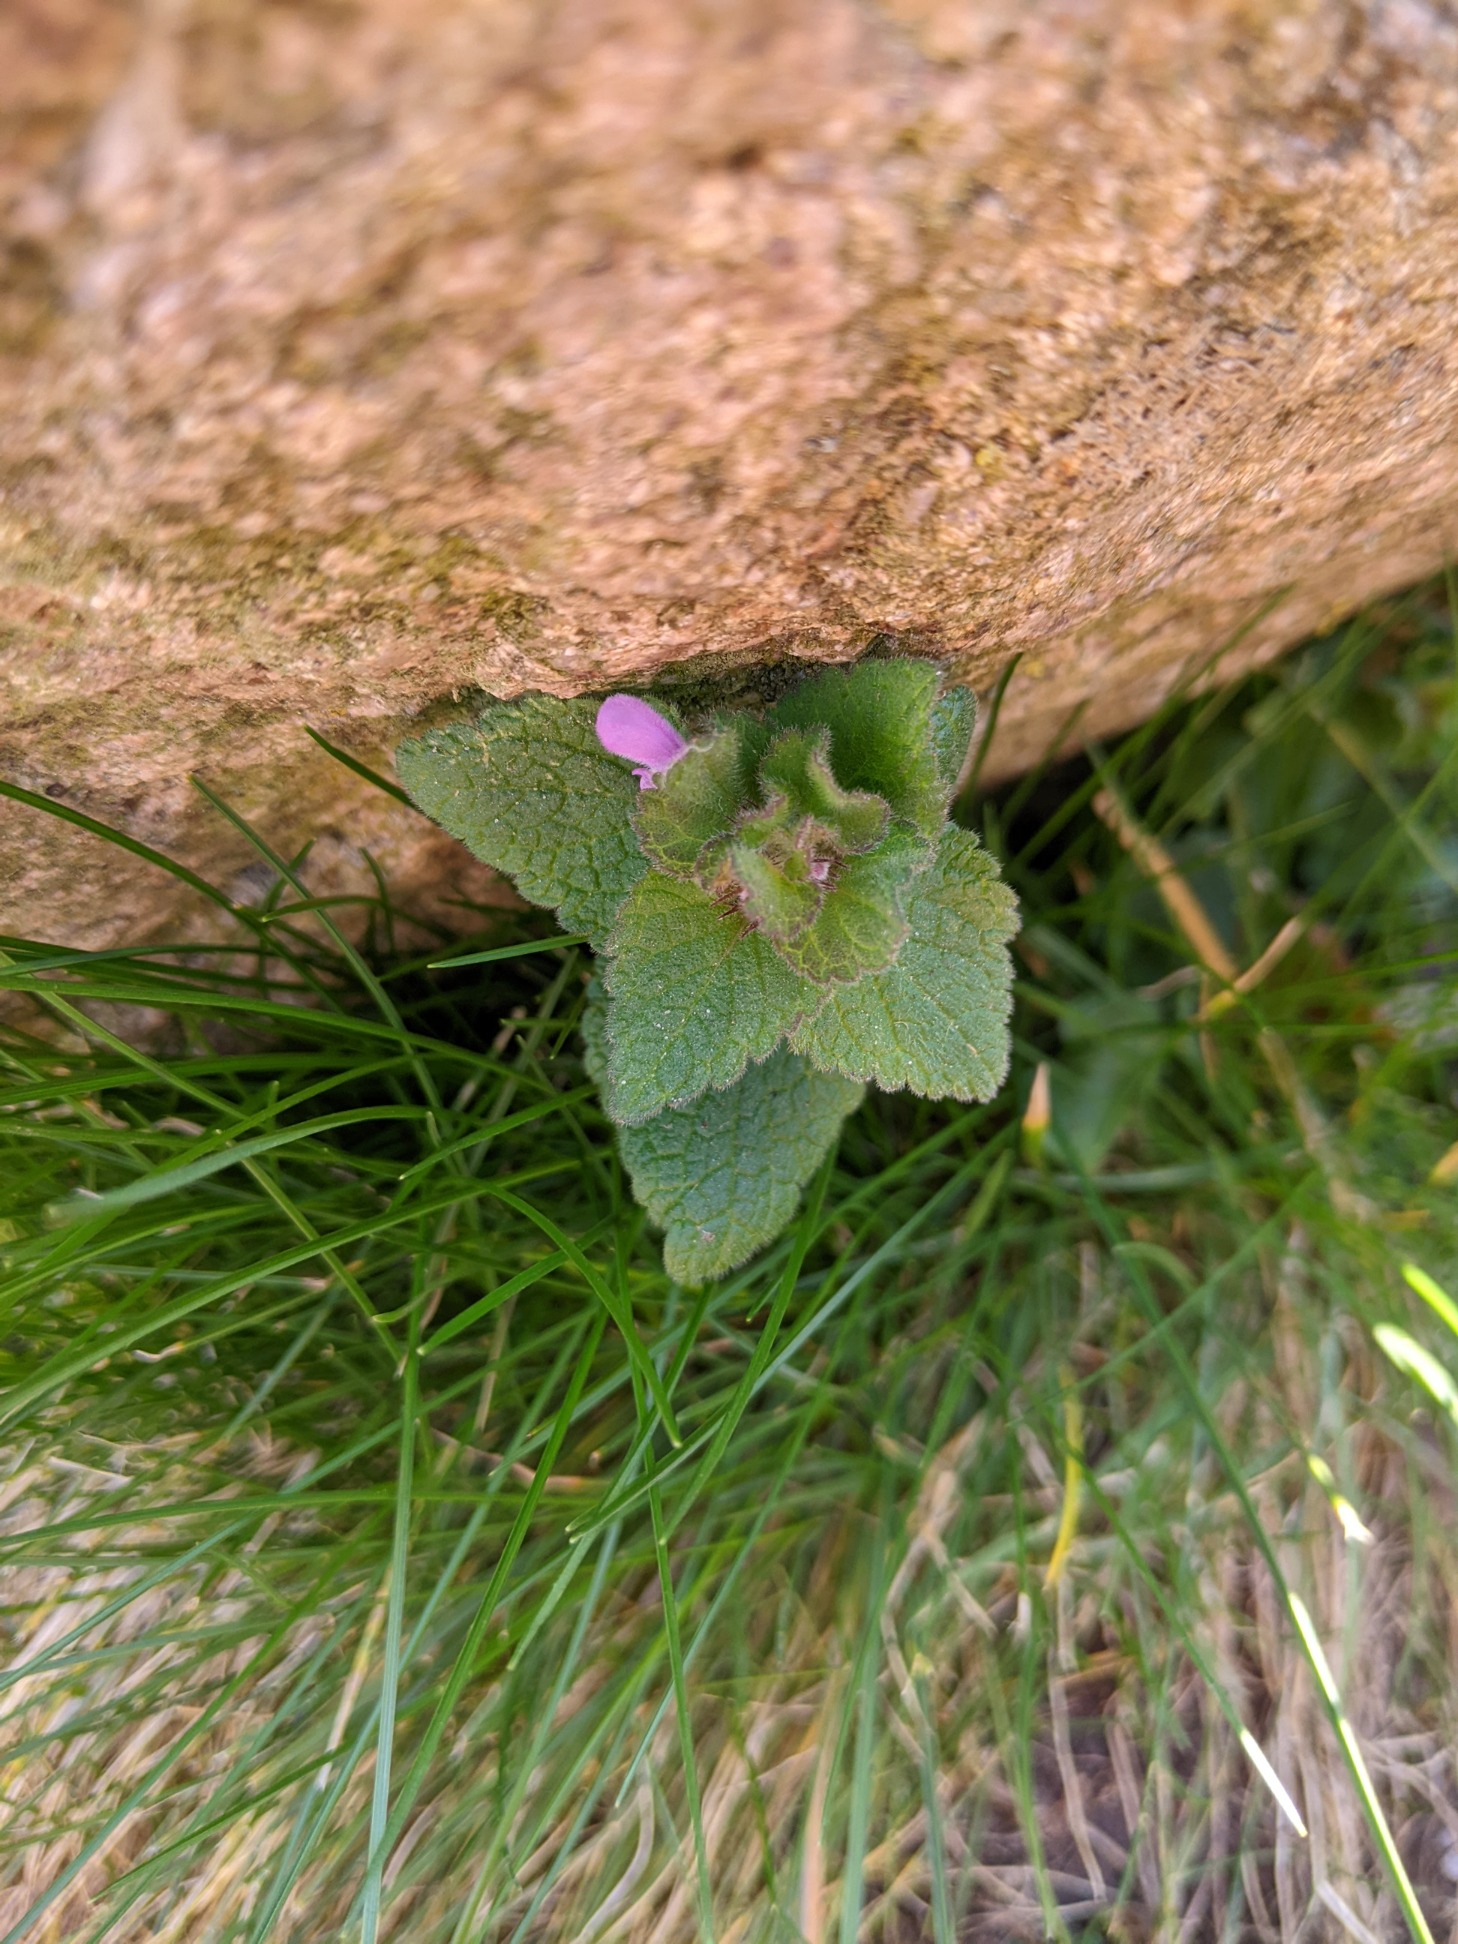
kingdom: Plantae
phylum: Tracheophyta
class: Magnoliopsida
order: Lamiales
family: Lamiaceae
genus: Lamium
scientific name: Lamium purpureum
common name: Rød tvetand
